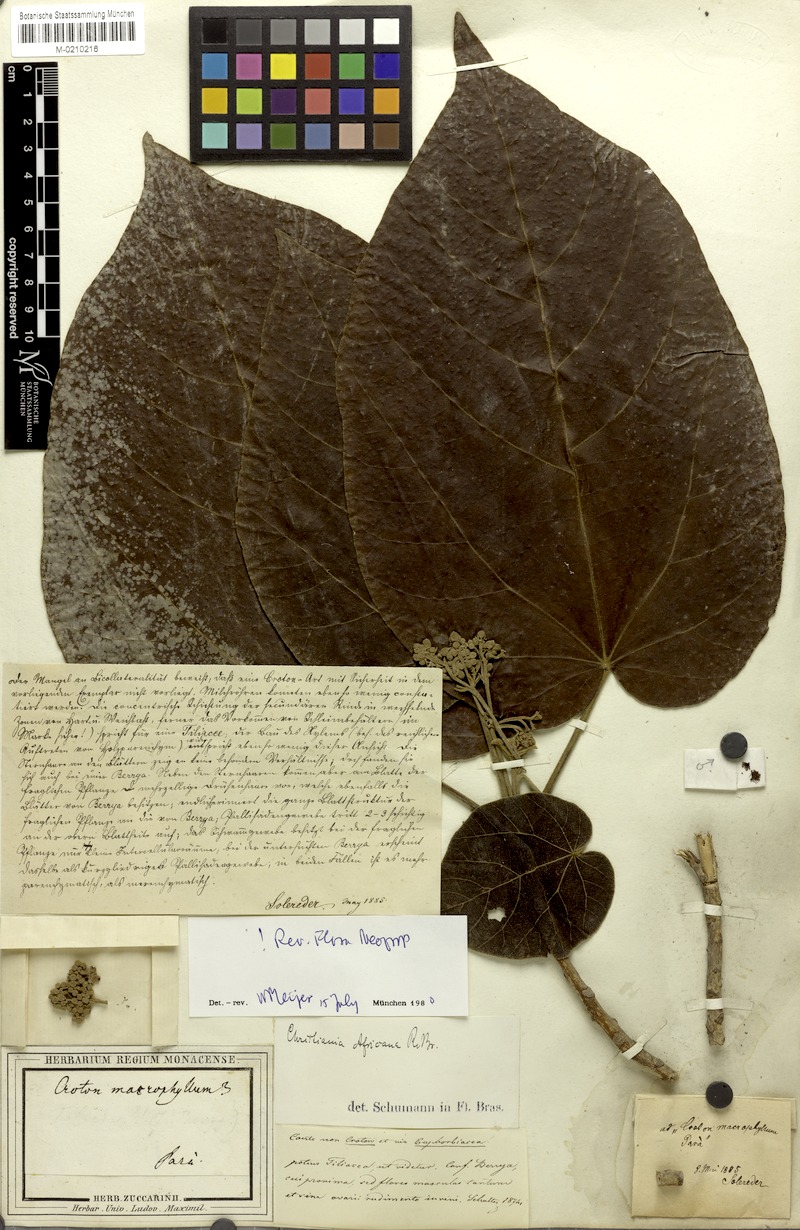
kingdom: Plantae
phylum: Tracheophyta
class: Magnoliopsida
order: Malvales
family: Malvaceae
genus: Christiana
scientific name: Christiana africana
